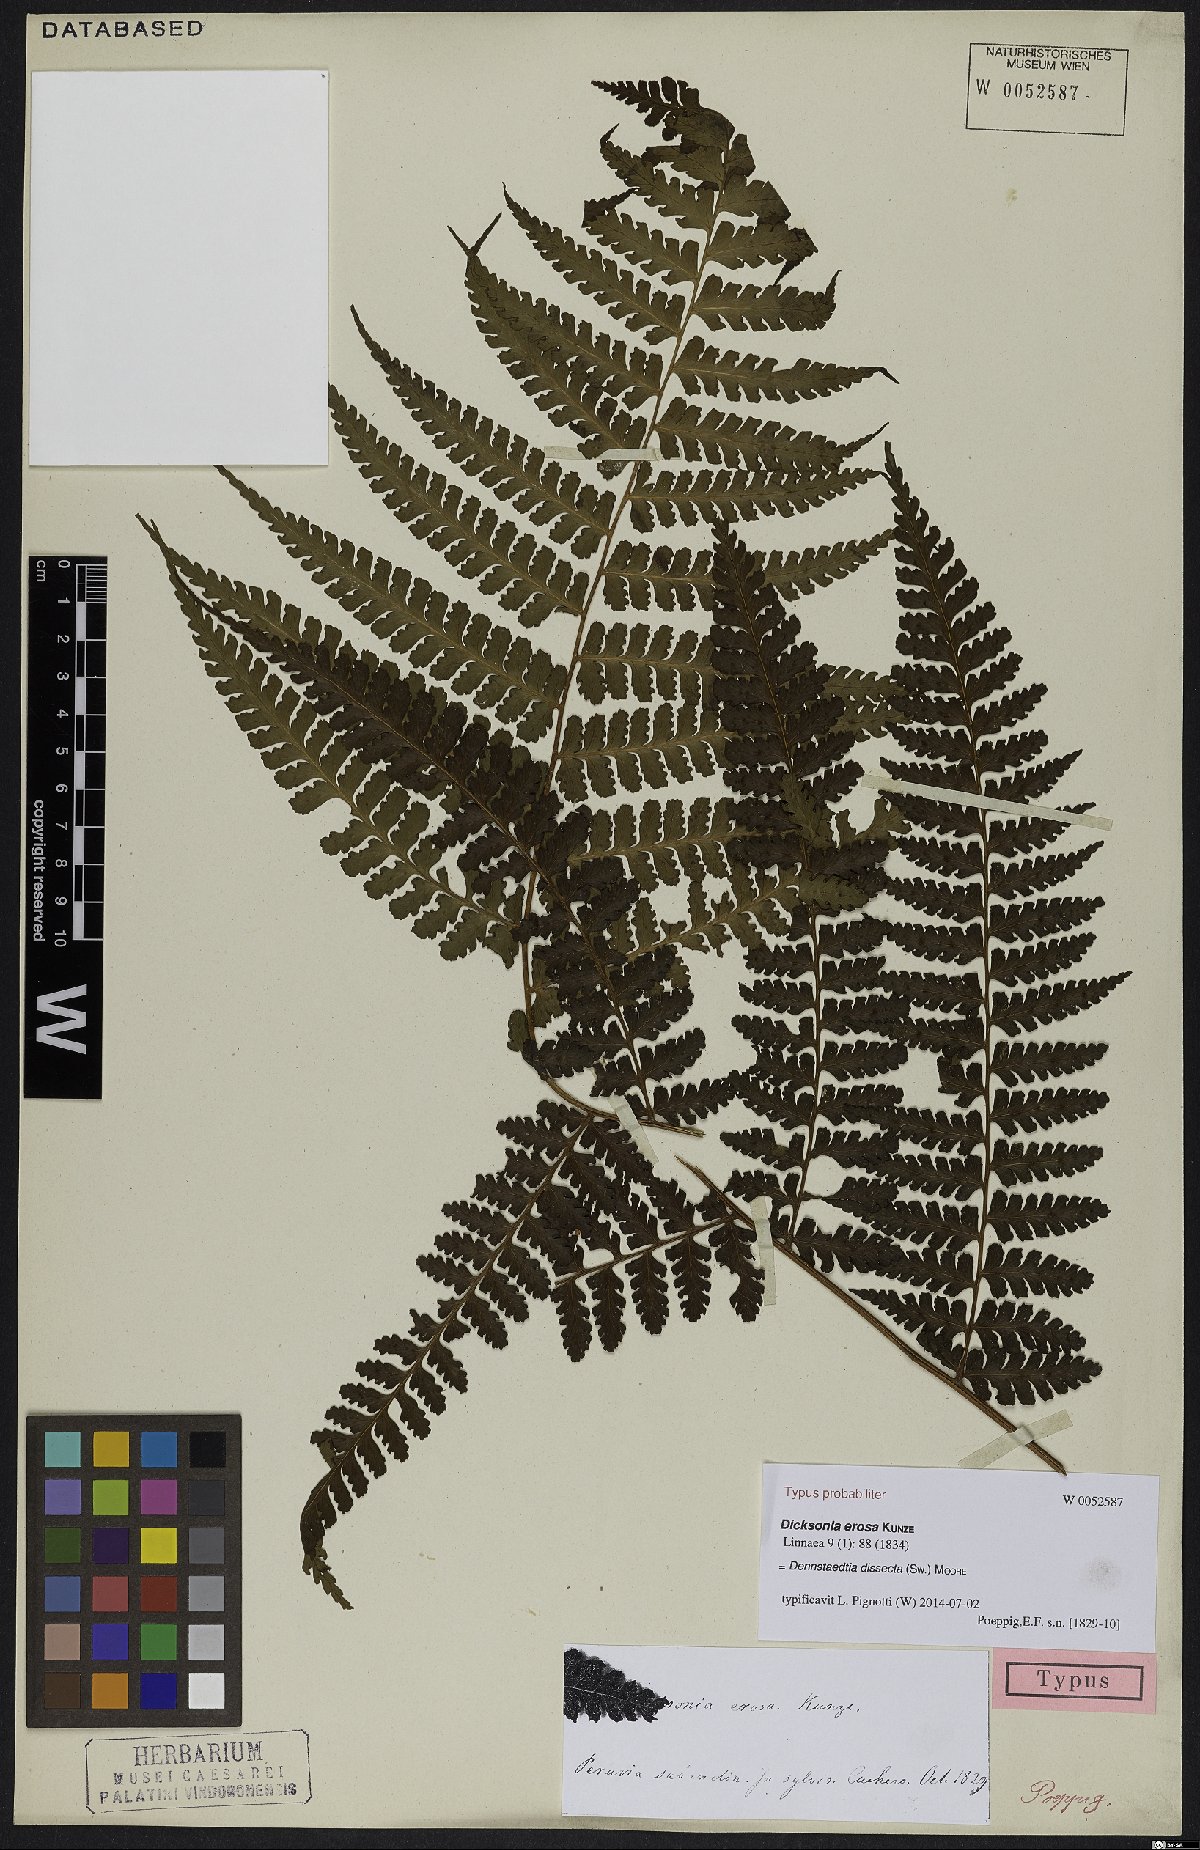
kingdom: Plantae
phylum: Tracheophyta
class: Polypodiopsida
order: Polypodiales
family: Dennstaedtiaceae
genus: Dennstaedtia
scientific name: Dennstaedtia dissecta
